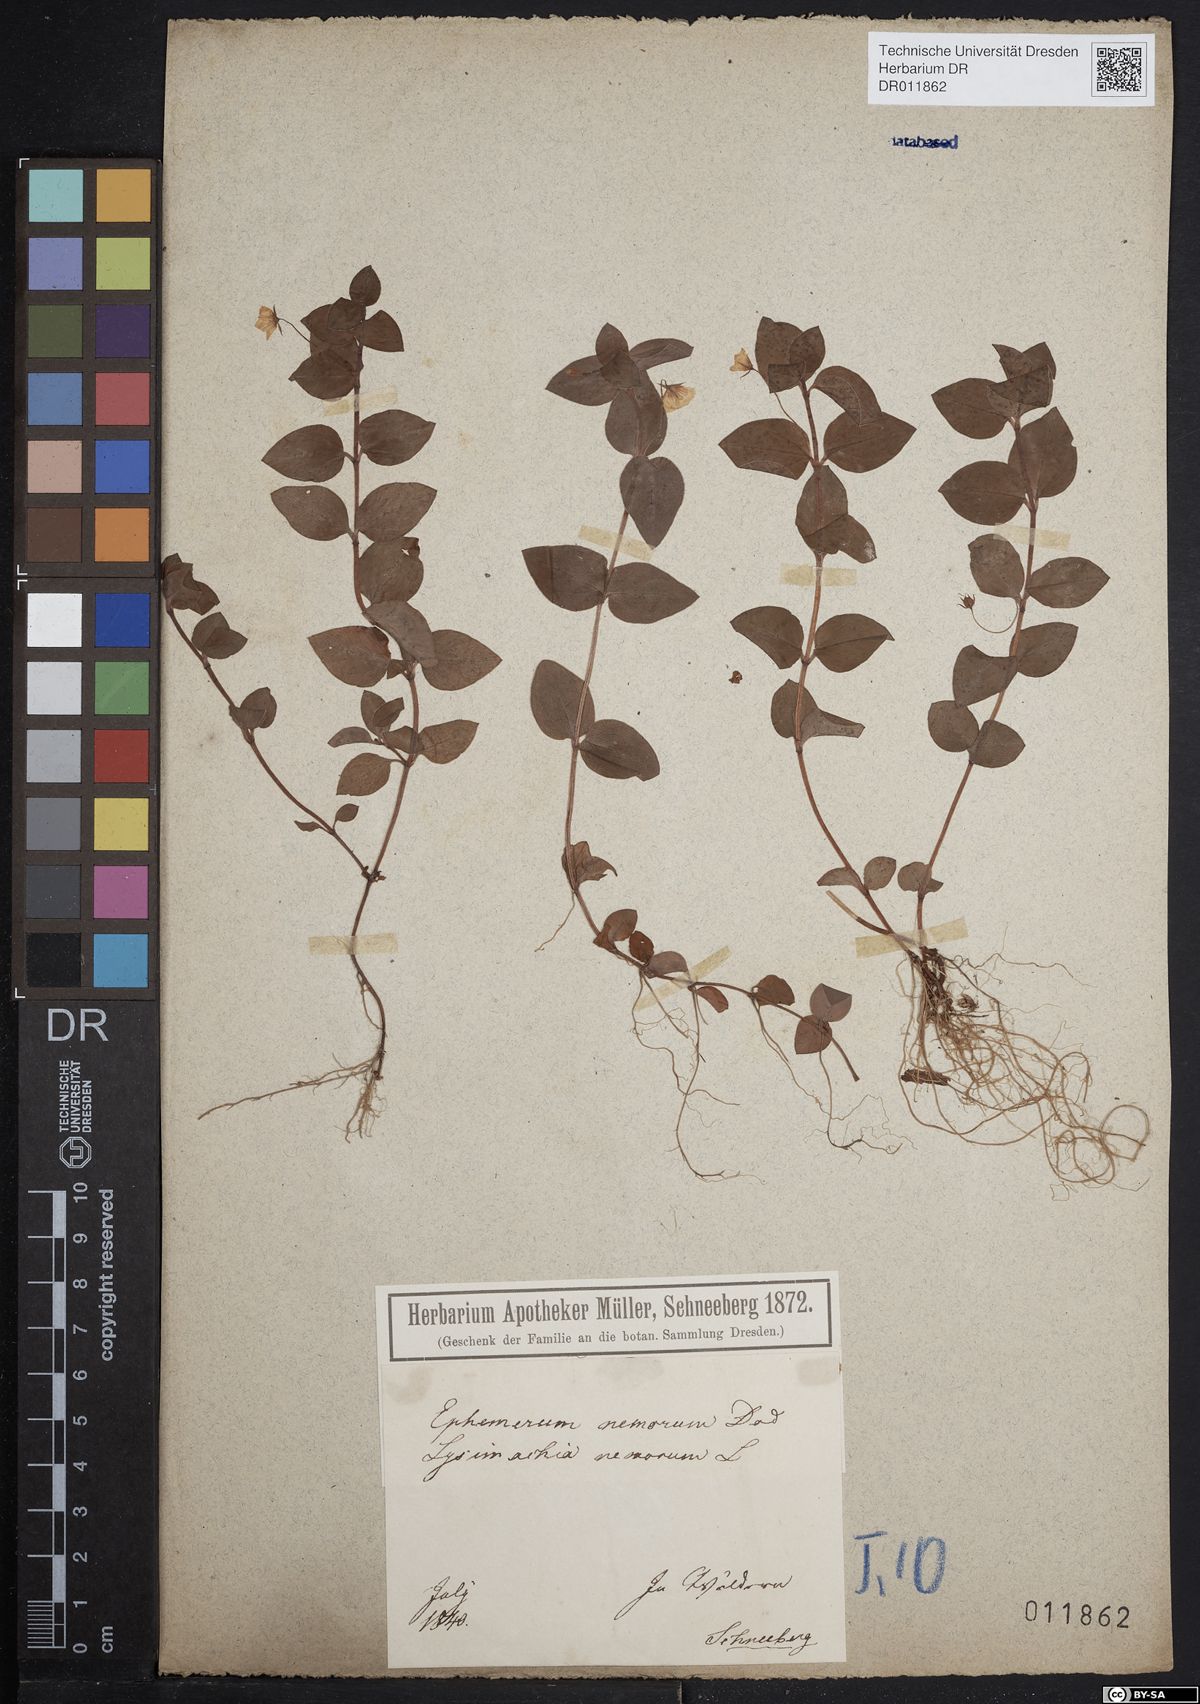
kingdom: Plantae
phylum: Tracheophyta
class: Magnoliopsida
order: Ericales
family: Primulaceae
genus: Lysimachia
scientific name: Lysimachia nemorum
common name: Yellow pimpernel
